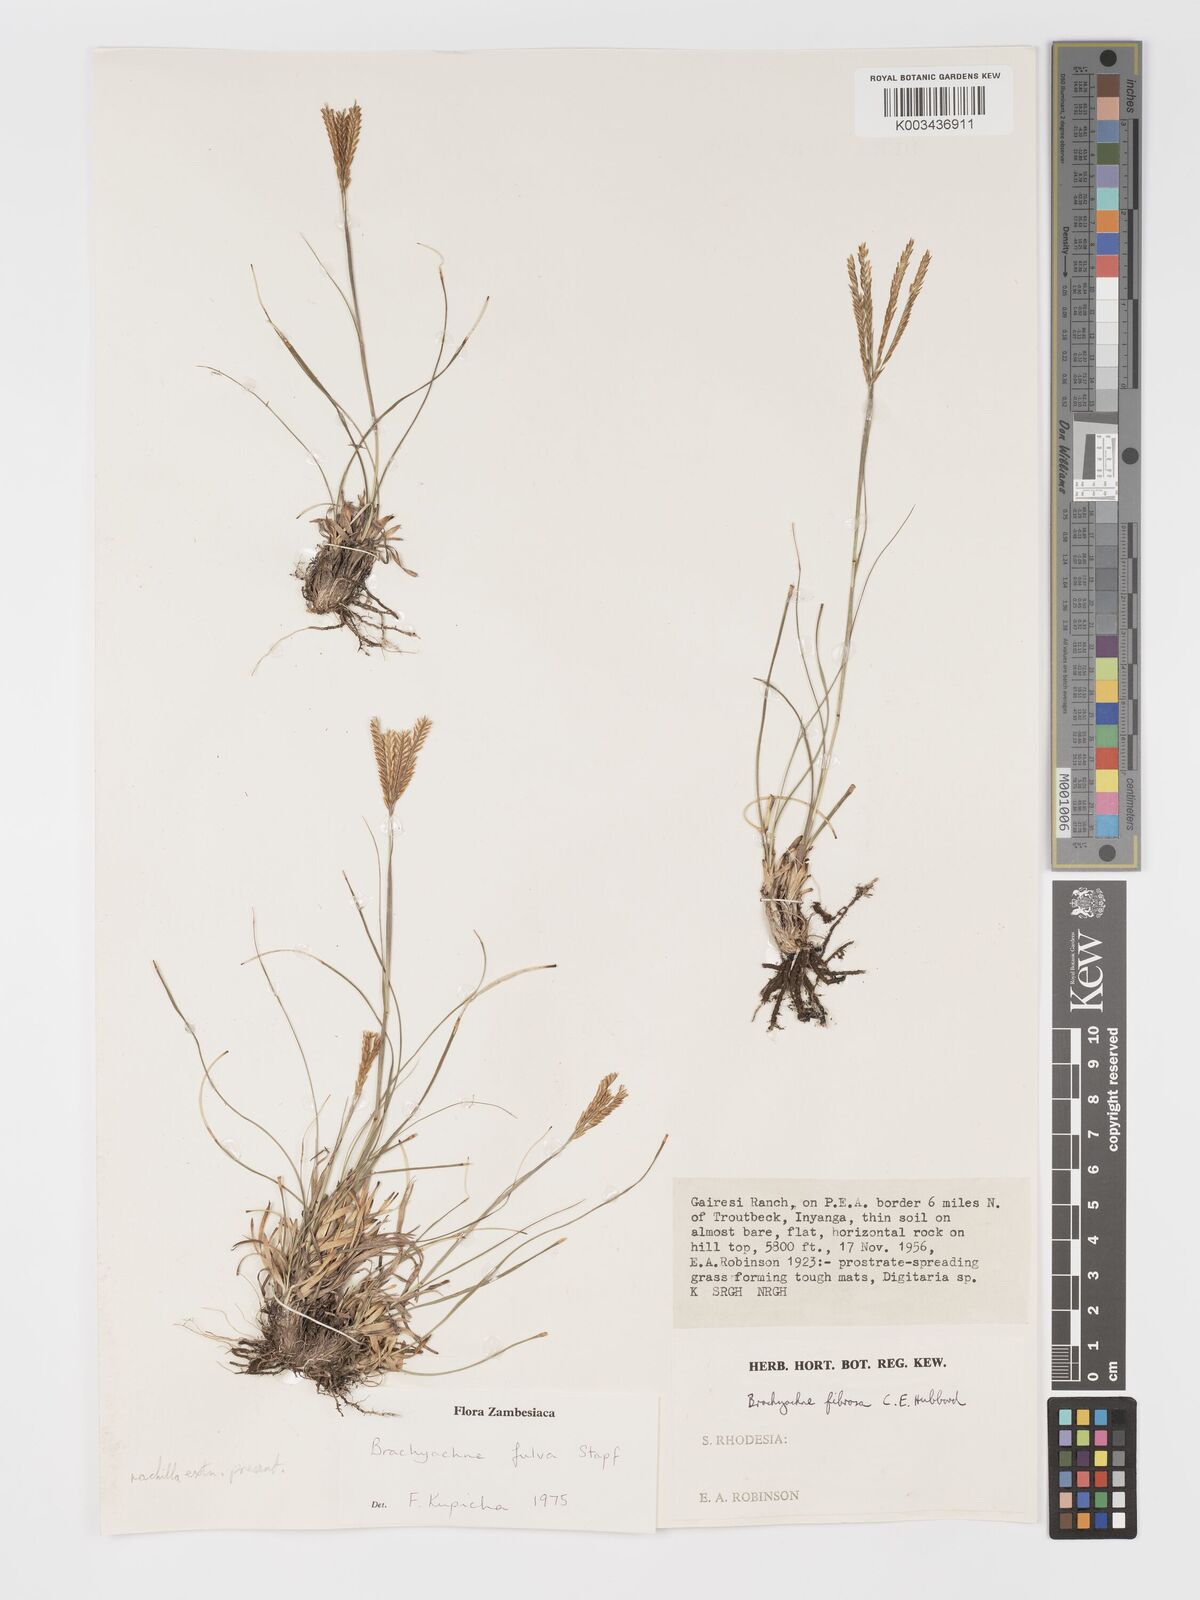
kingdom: Plantae
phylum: Tracheophyta
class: Liliopsida
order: Poales
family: Poaceae
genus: Micrachne
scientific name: Micrachne fulva
